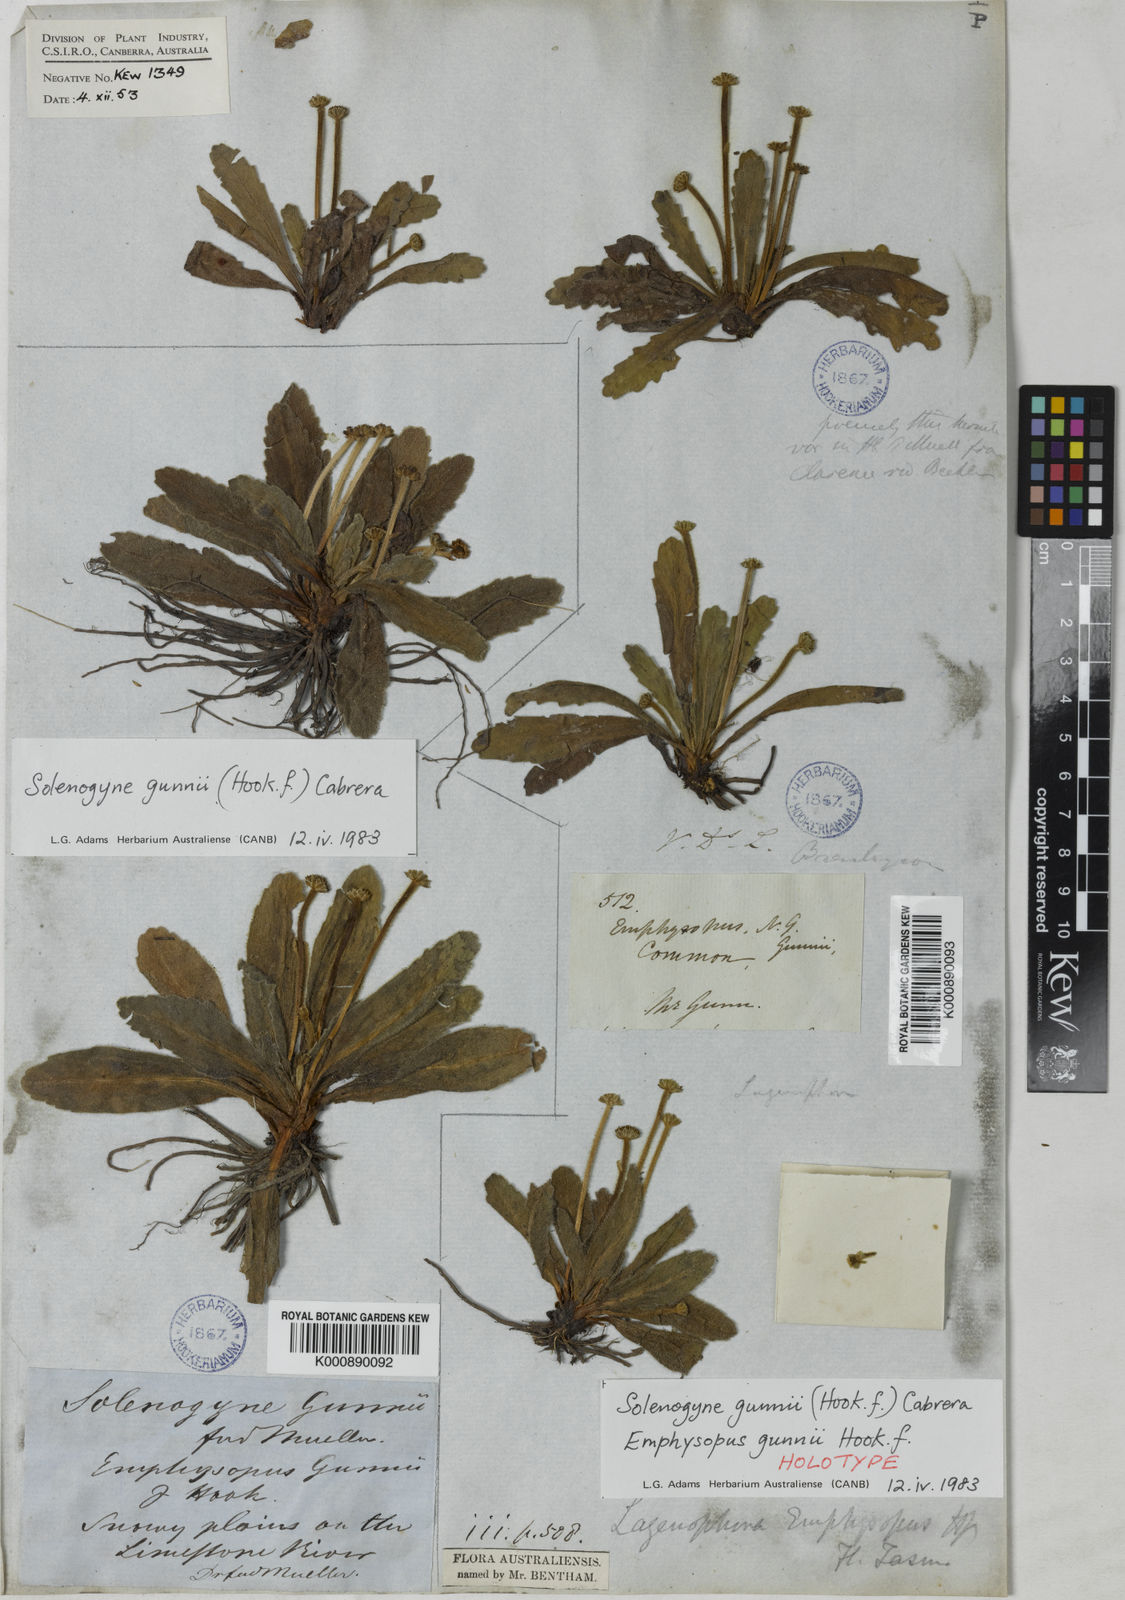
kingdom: Plantae
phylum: Tracheophyta
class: Magnoliopsida
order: Asterales
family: Asteraceae
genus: Solenogyne
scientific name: Solenogyne gunnii
